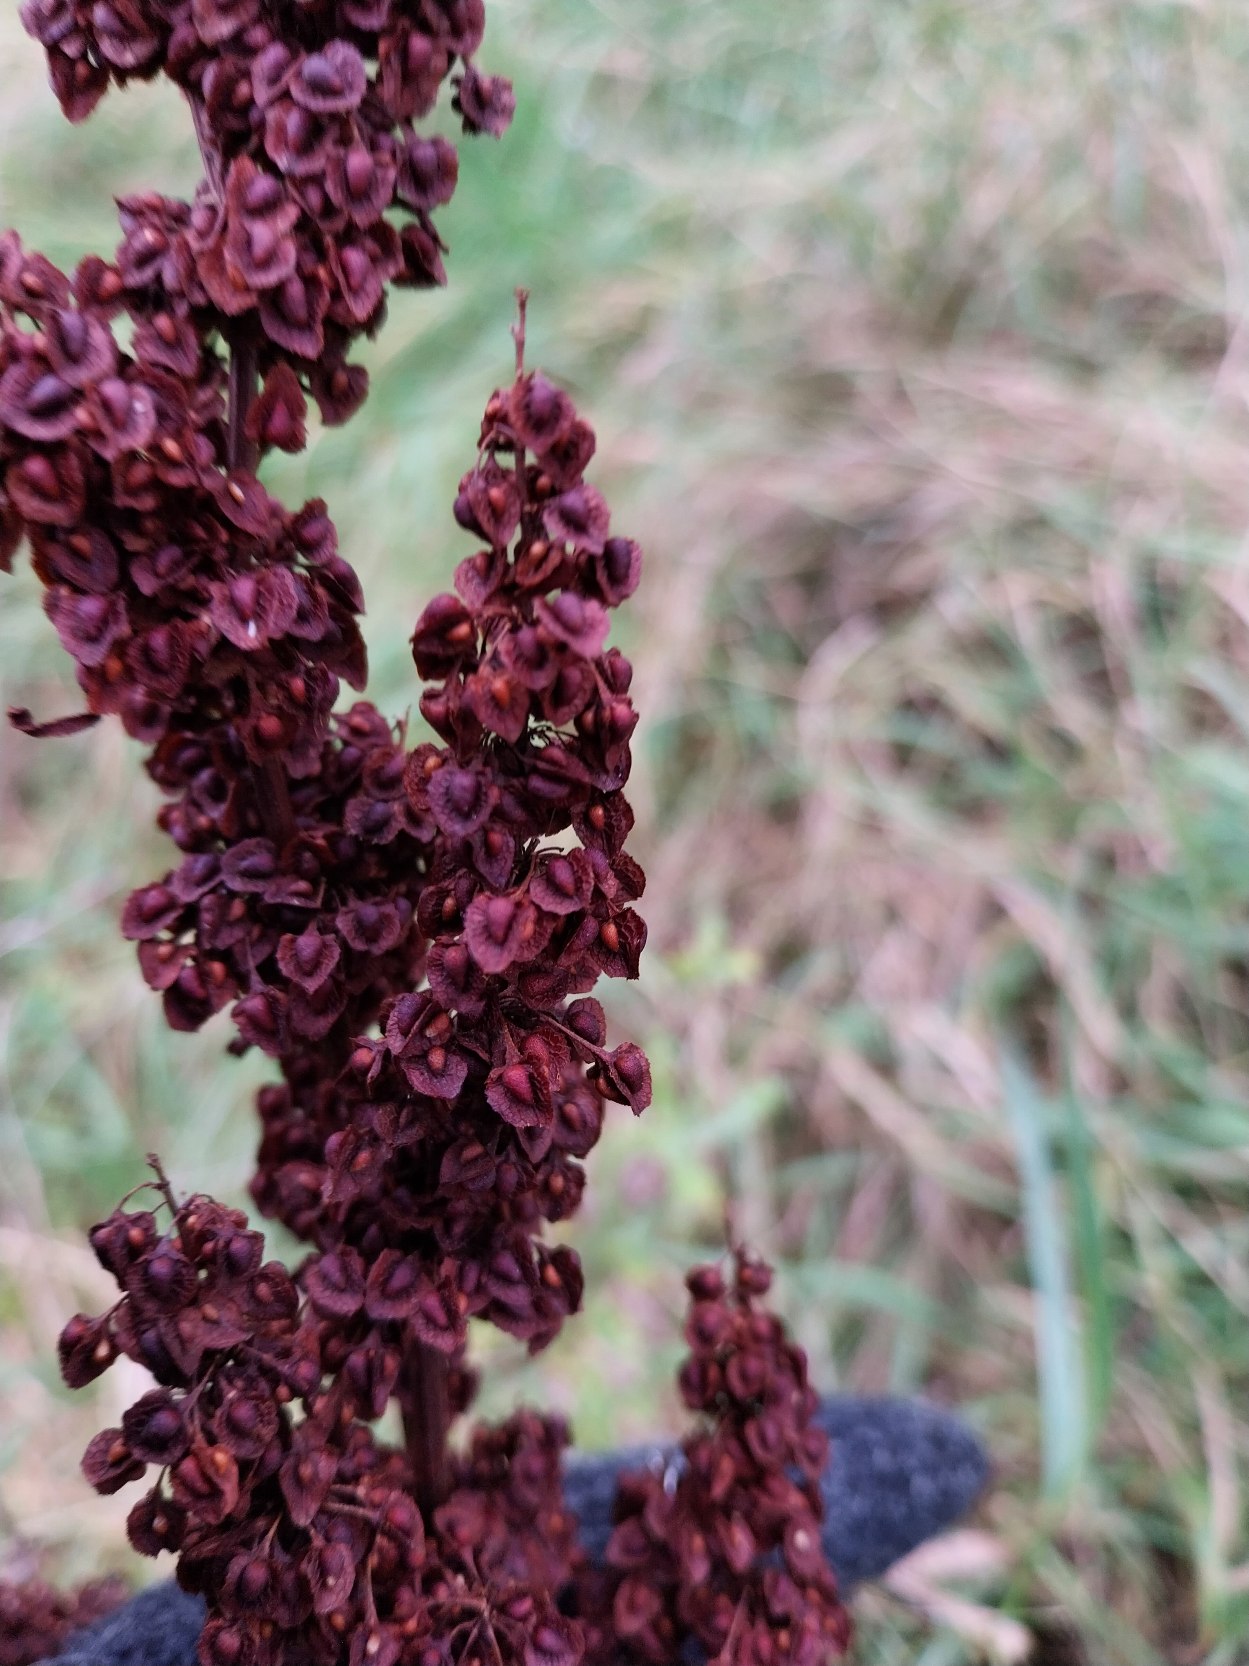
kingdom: Plantae
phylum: Tracheophyta
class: Magnoliopsida
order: Caryophyllales
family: Polygonaceae
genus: Rumex
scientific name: Rumex crispus
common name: Kruset skræppe
